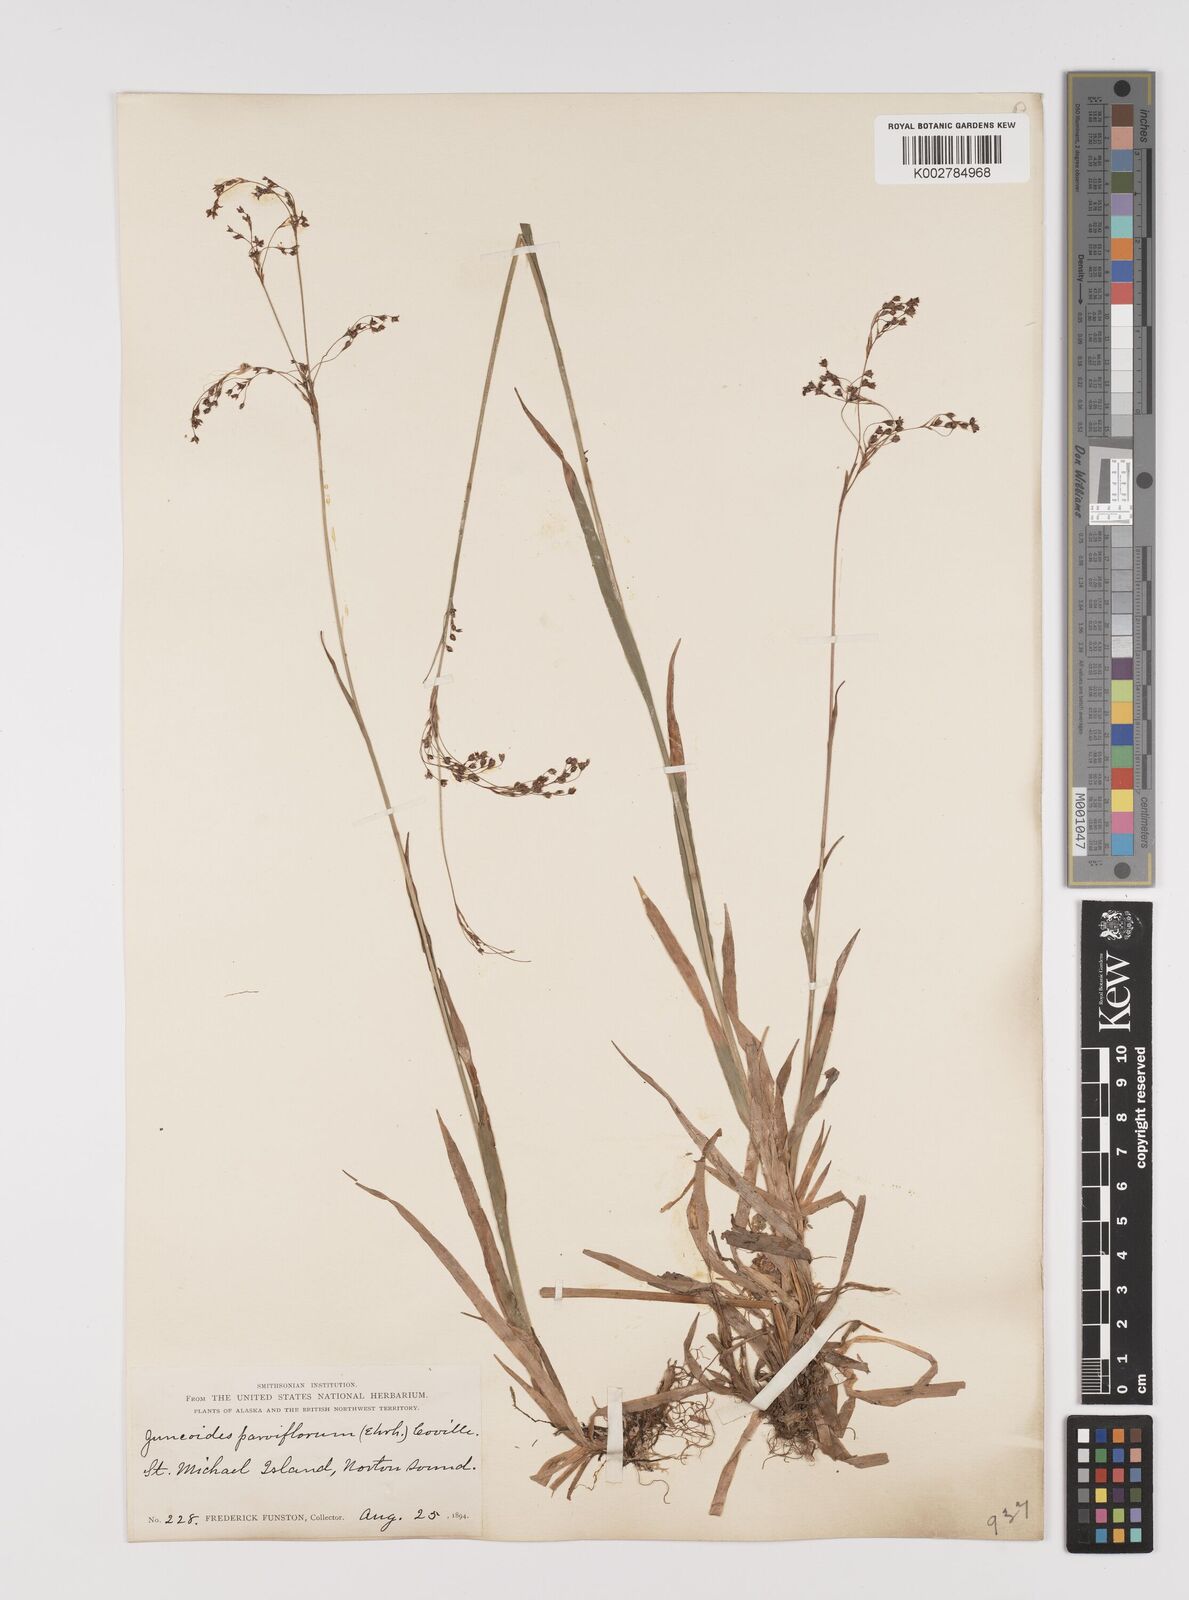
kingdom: Plantae
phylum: Tracheophyta
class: Liliopsida
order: Poales
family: Juncaceae
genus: Luzula
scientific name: Luzula parviflora
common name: Millet woodrush
